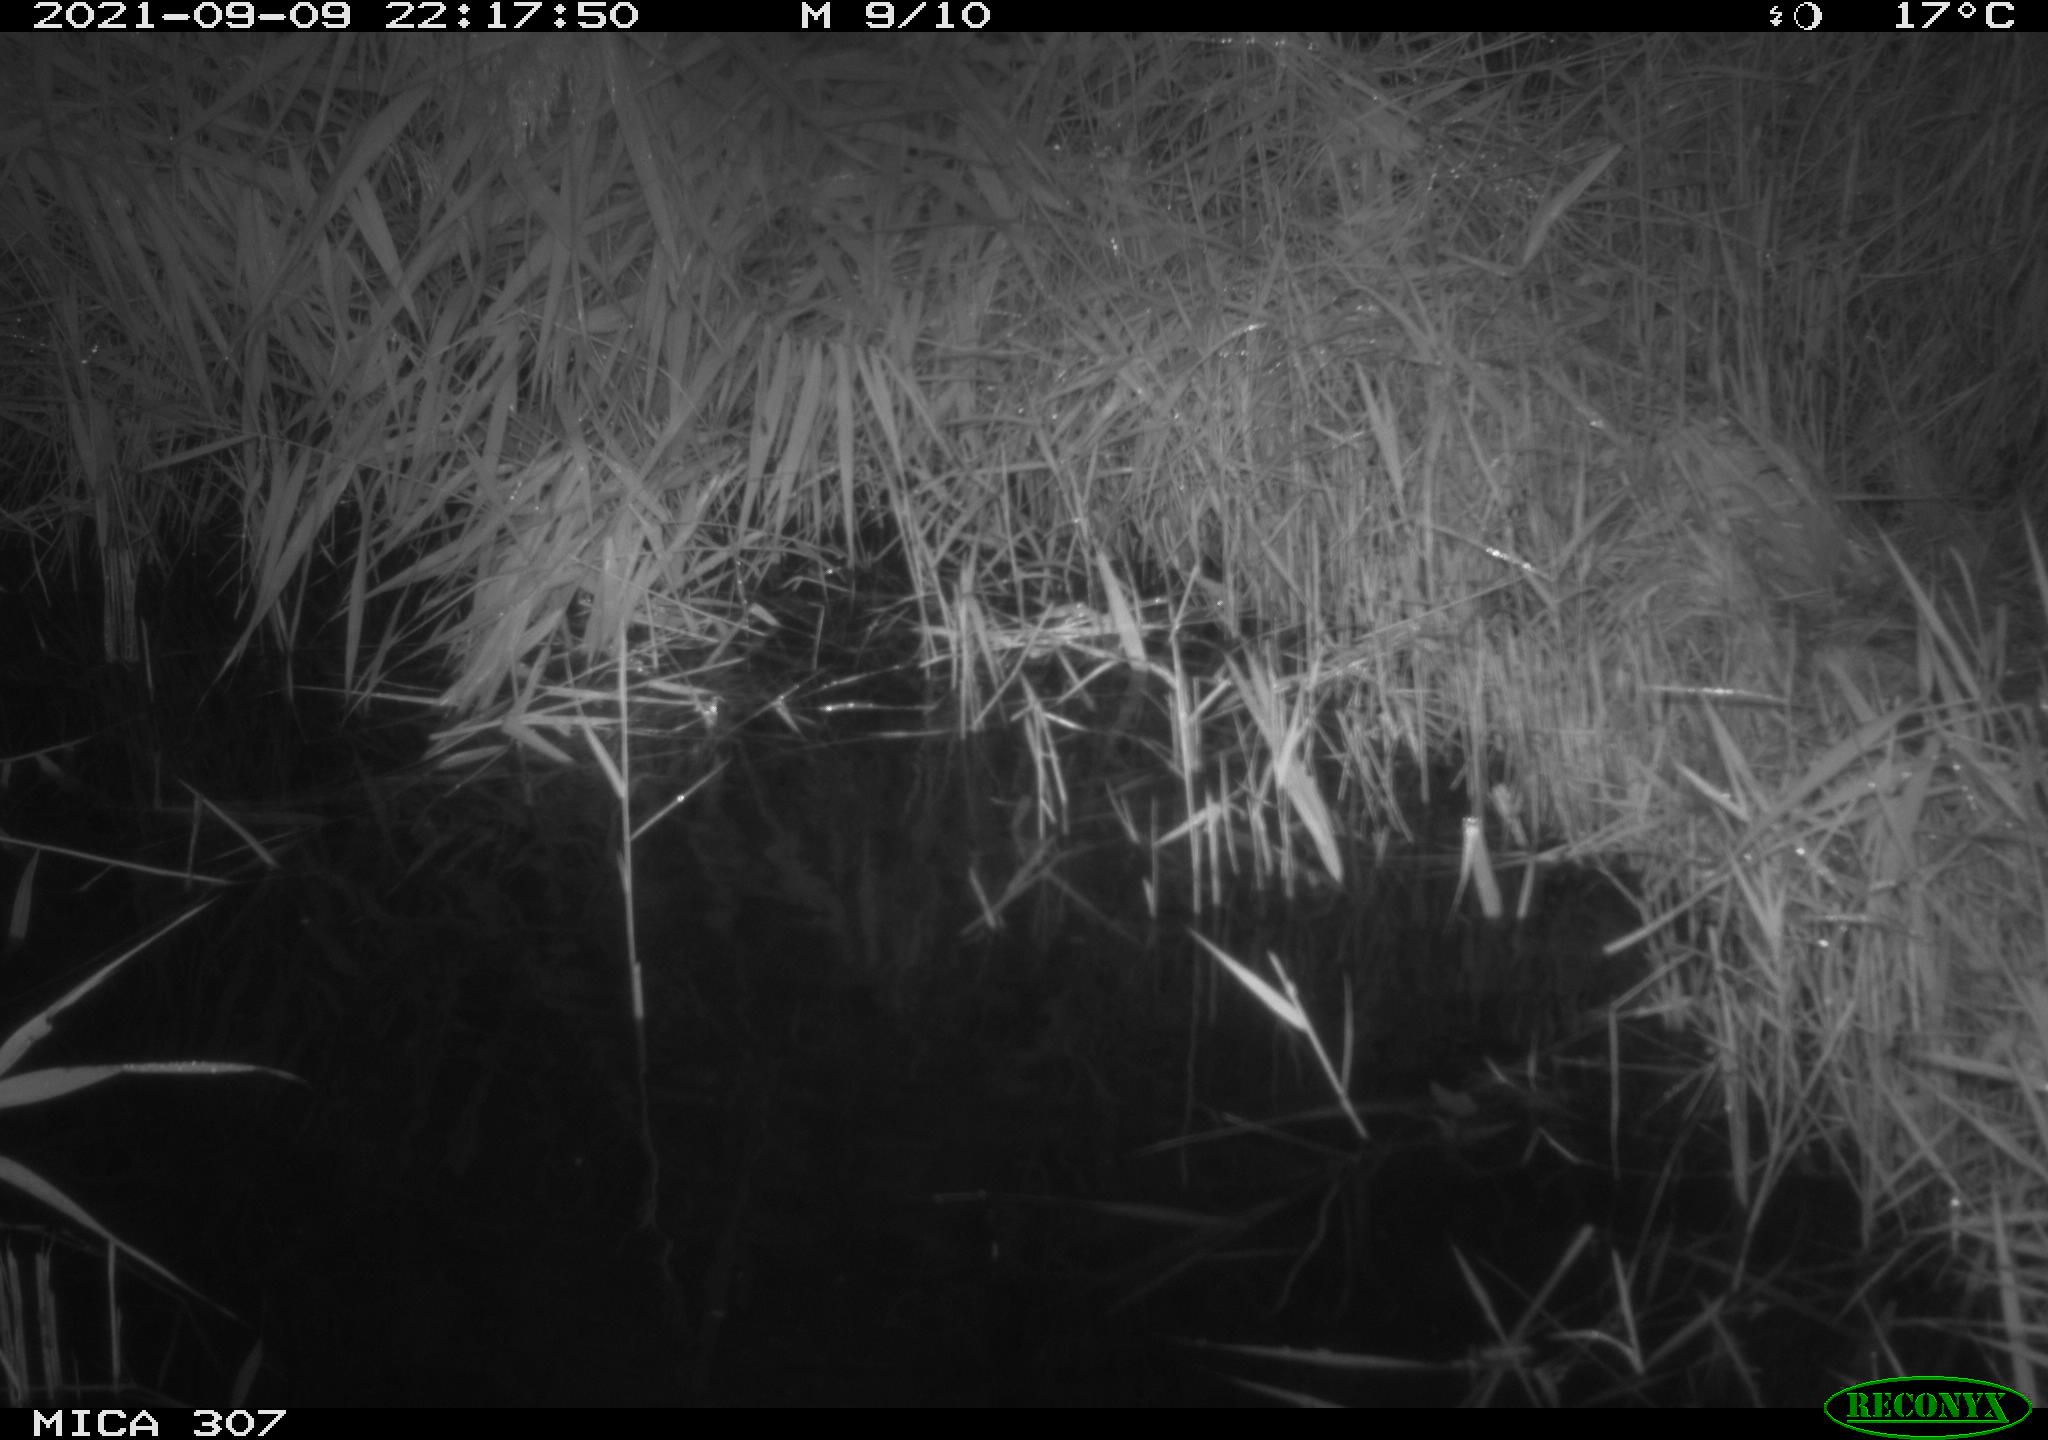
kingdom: Animalia
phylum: Chordata
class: Mammalia
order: Rodentia
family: Muridae
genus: Rattus
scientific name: Rattus norvegicus
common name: Brown rat
